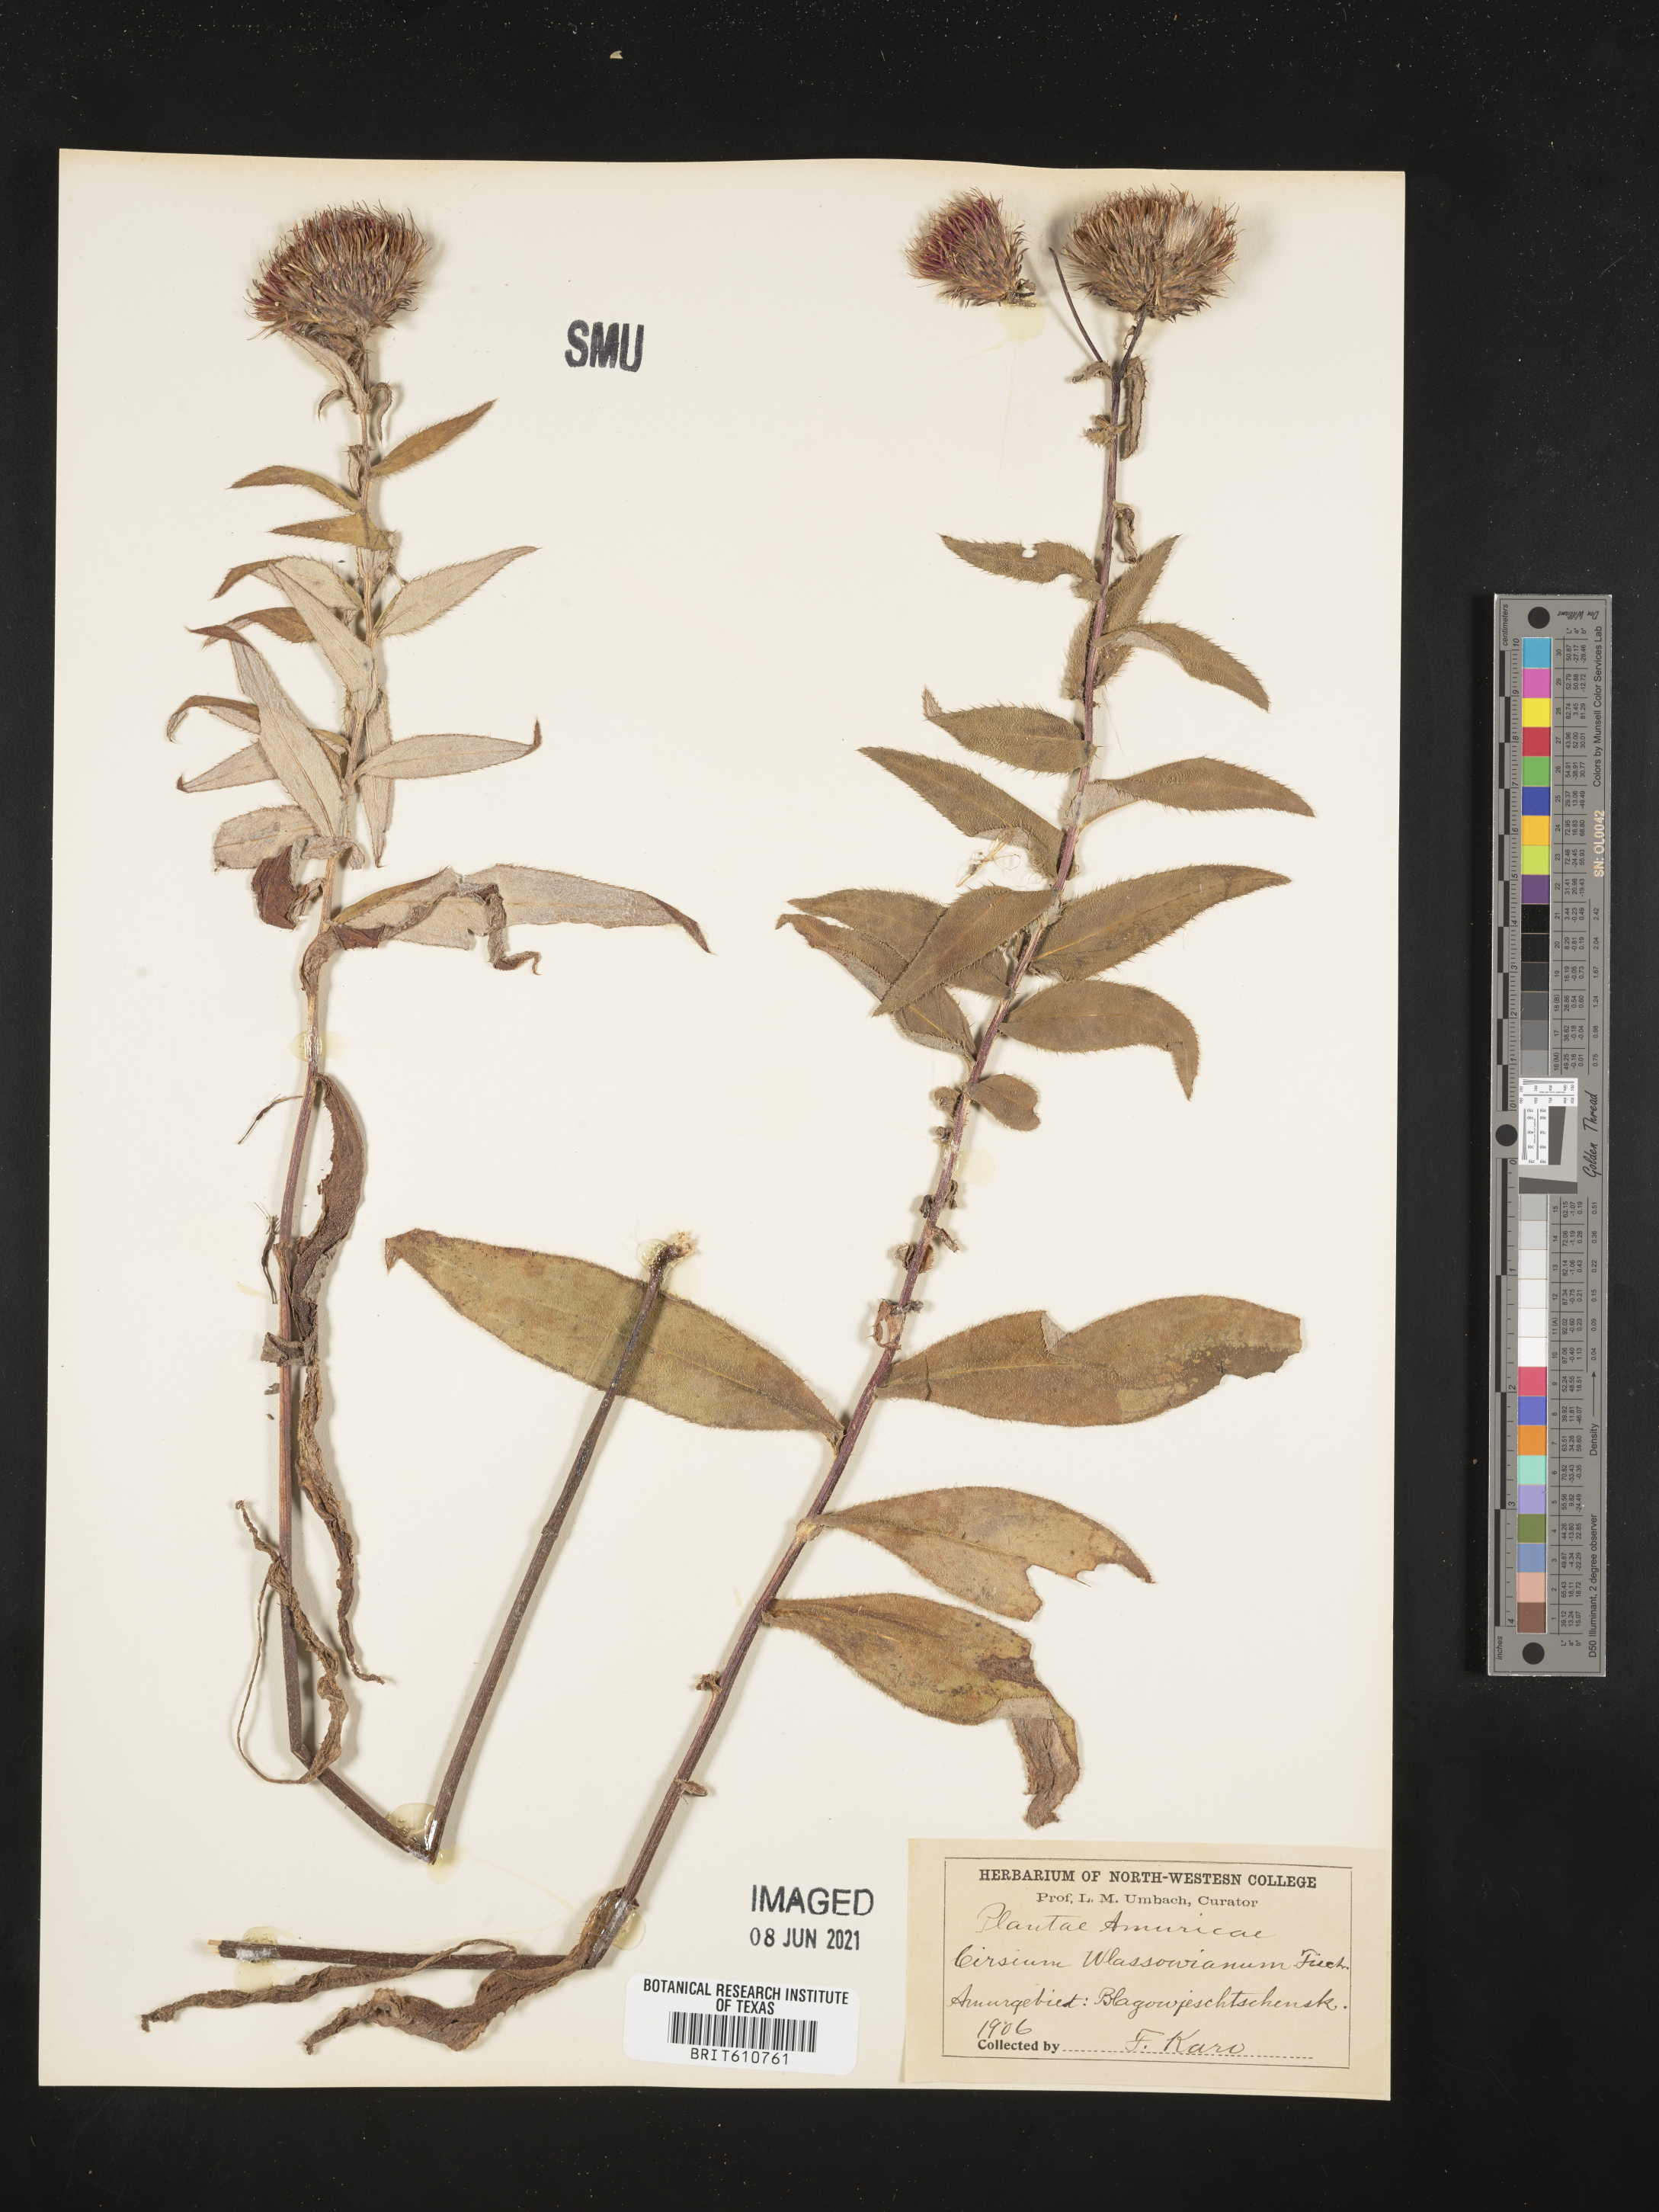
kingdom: Plantae
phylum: Tracheophyta
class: Magnoliopsida
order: Asterales
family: Asteraceae
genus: Cirsium
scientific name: Cirsium vlassovianum
